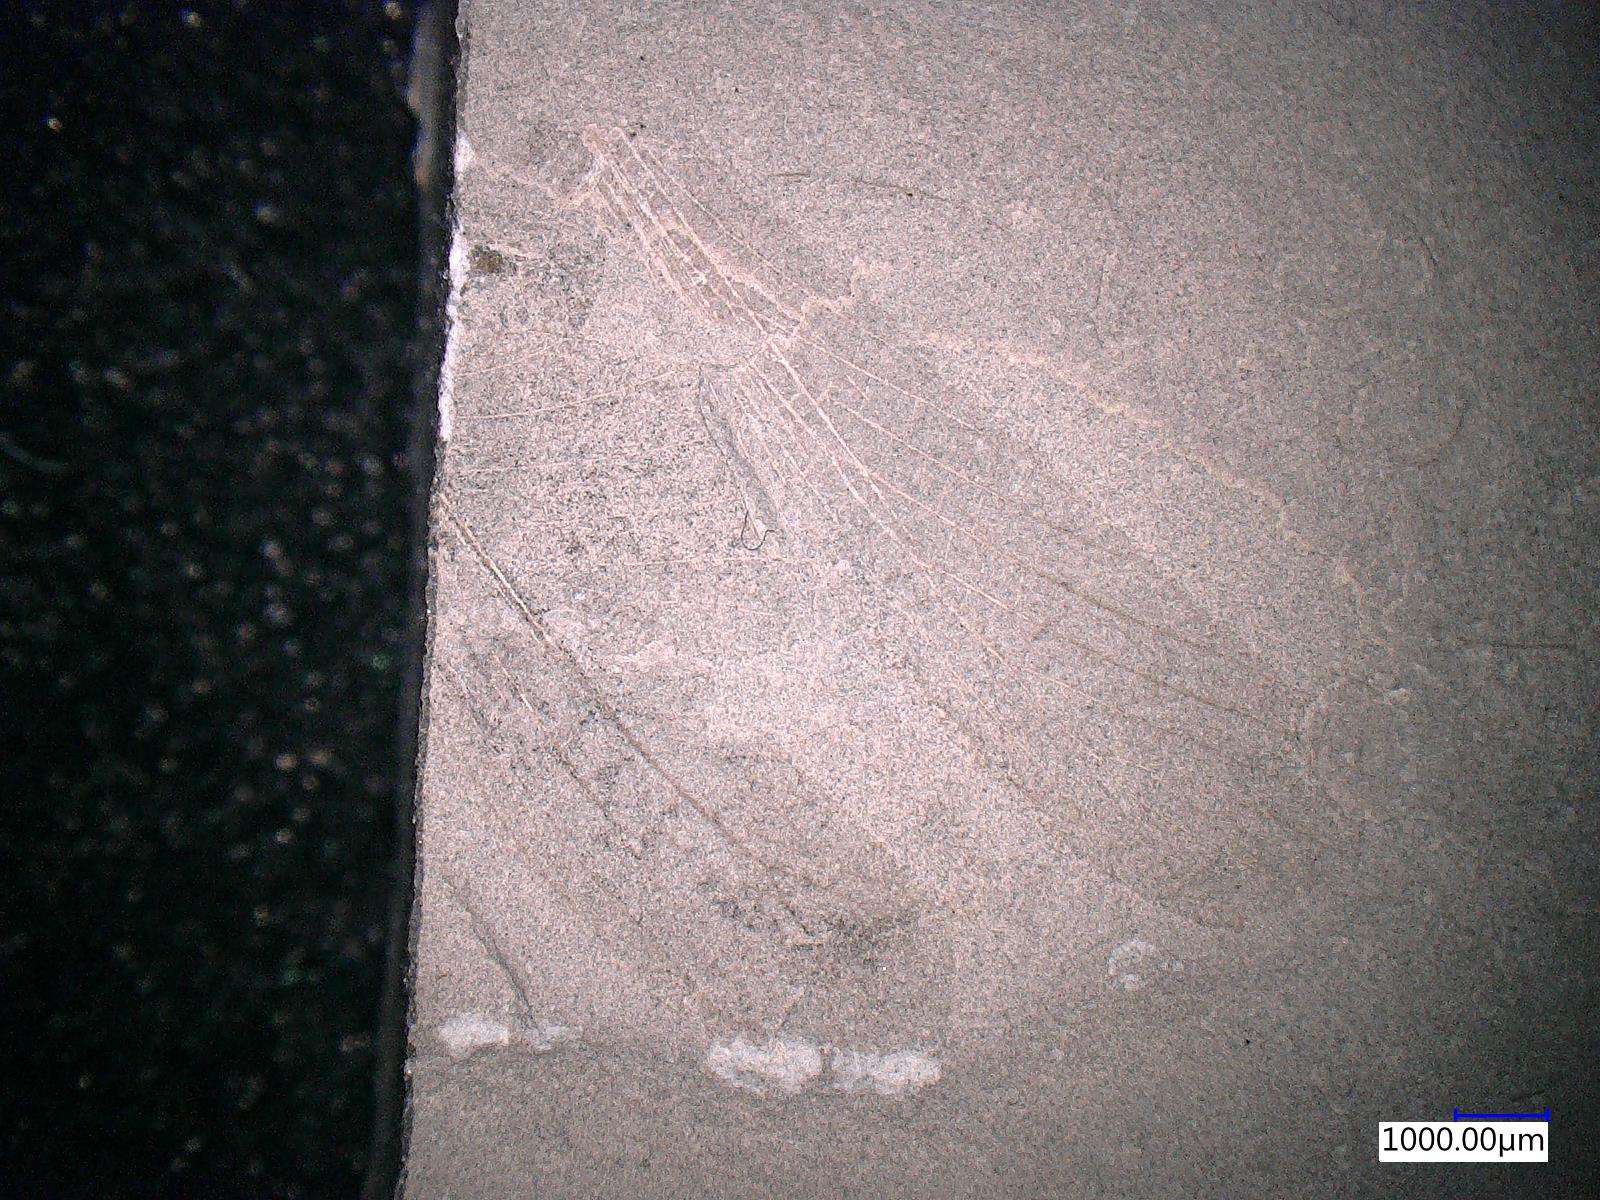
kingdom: Animalia
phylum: Arthropoda
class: Insecta
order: Orthoptera
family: Locustopsidae
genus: Locustopsis
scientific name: Locustopsis
